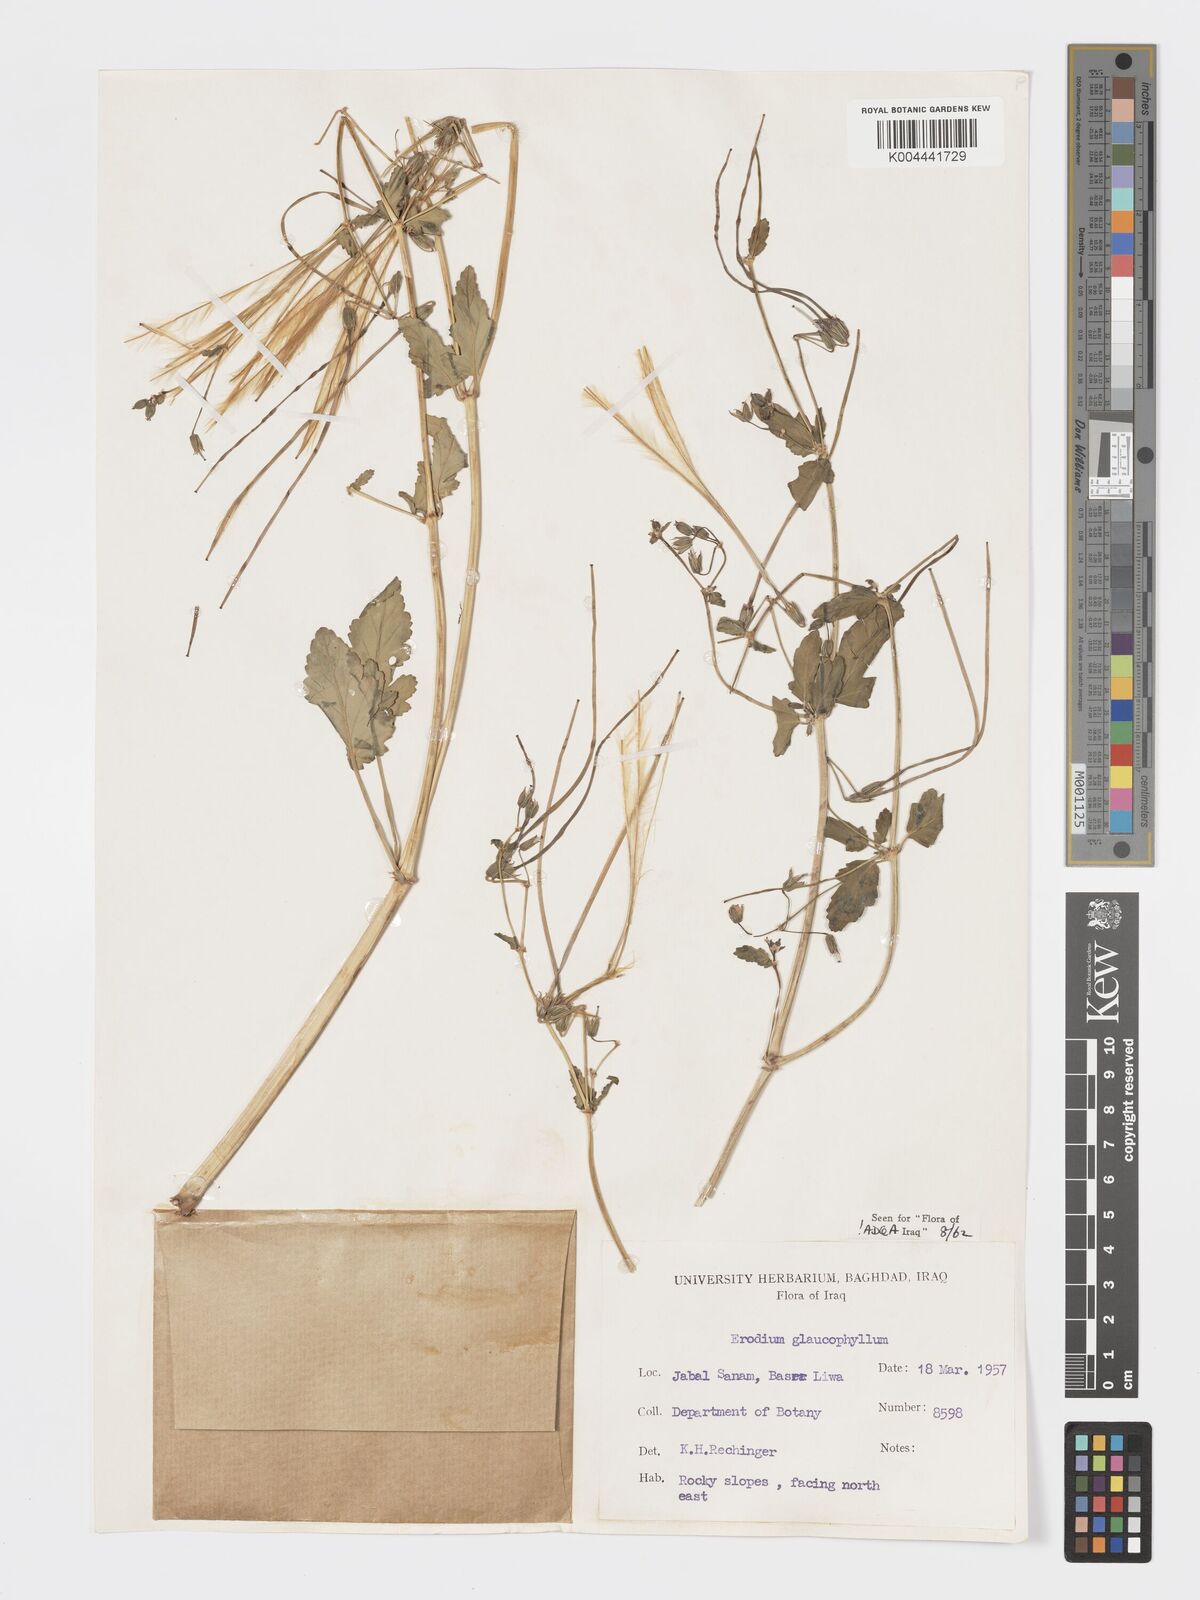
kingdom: Plantae
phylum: Tracheophyta
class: Magnoliopsida
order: Geraniales
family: Geraniaceae
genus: Erodium
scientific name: Erodium glaucophyllum
